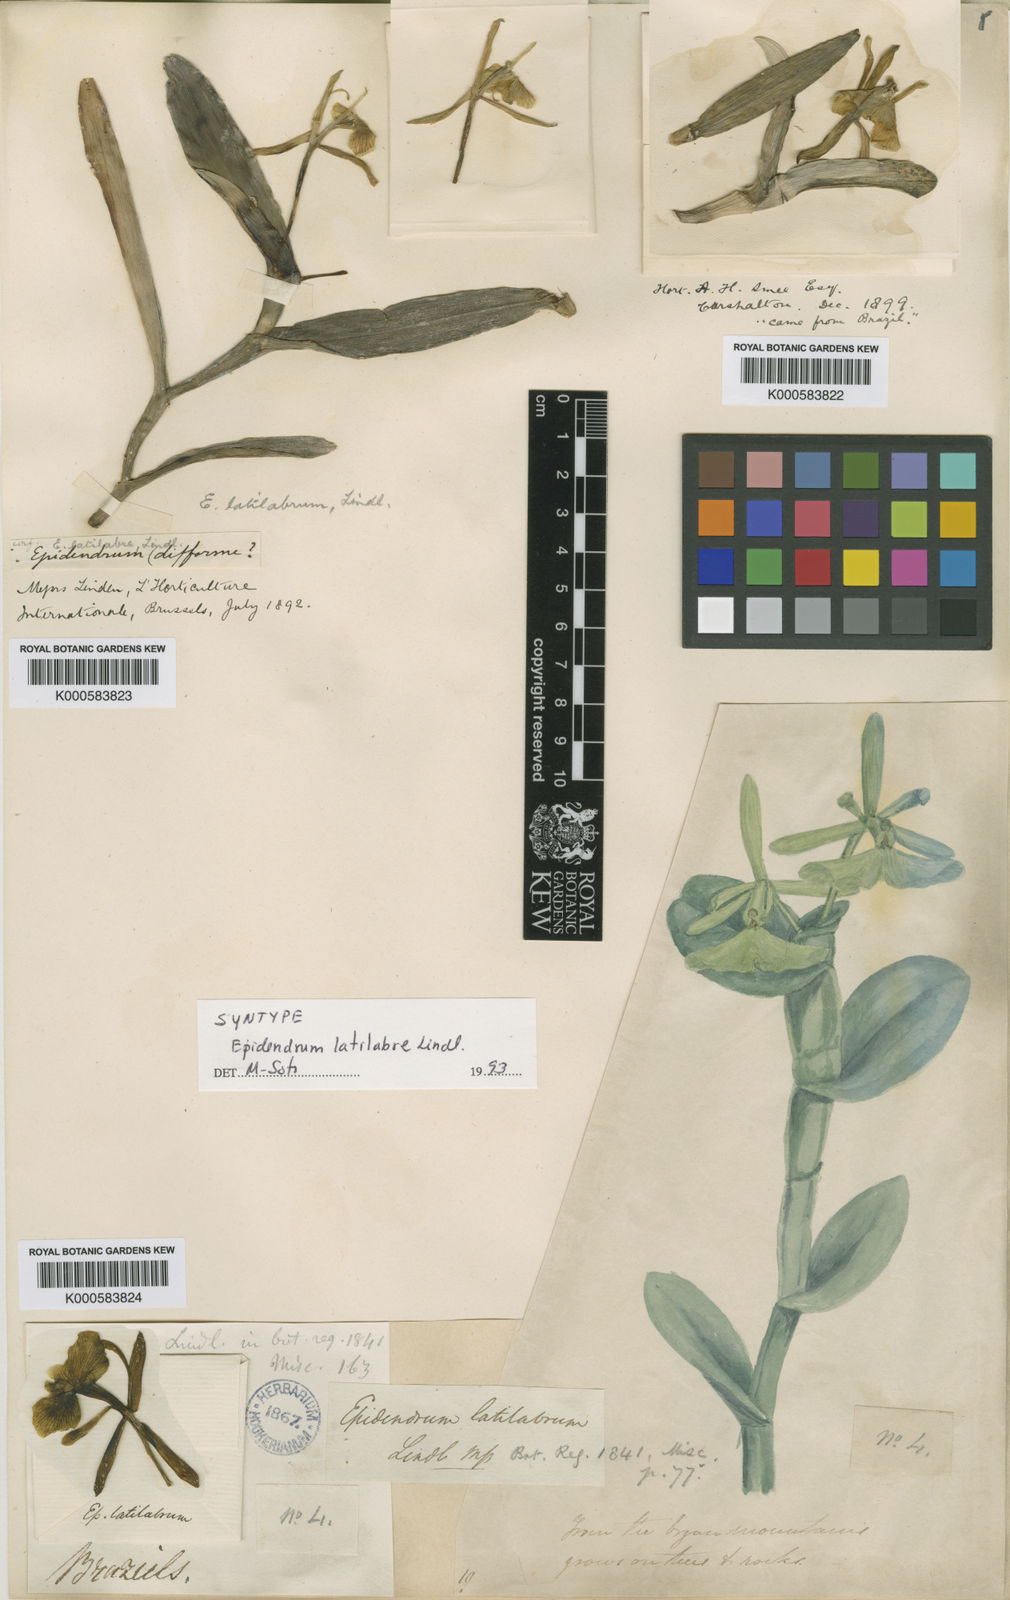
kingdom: Plantae
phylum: Tracheophyta
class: Liliopsida
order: Asparagales
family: Orchidaceae
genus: Epidendrum
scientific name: Epidendrum latilabre
